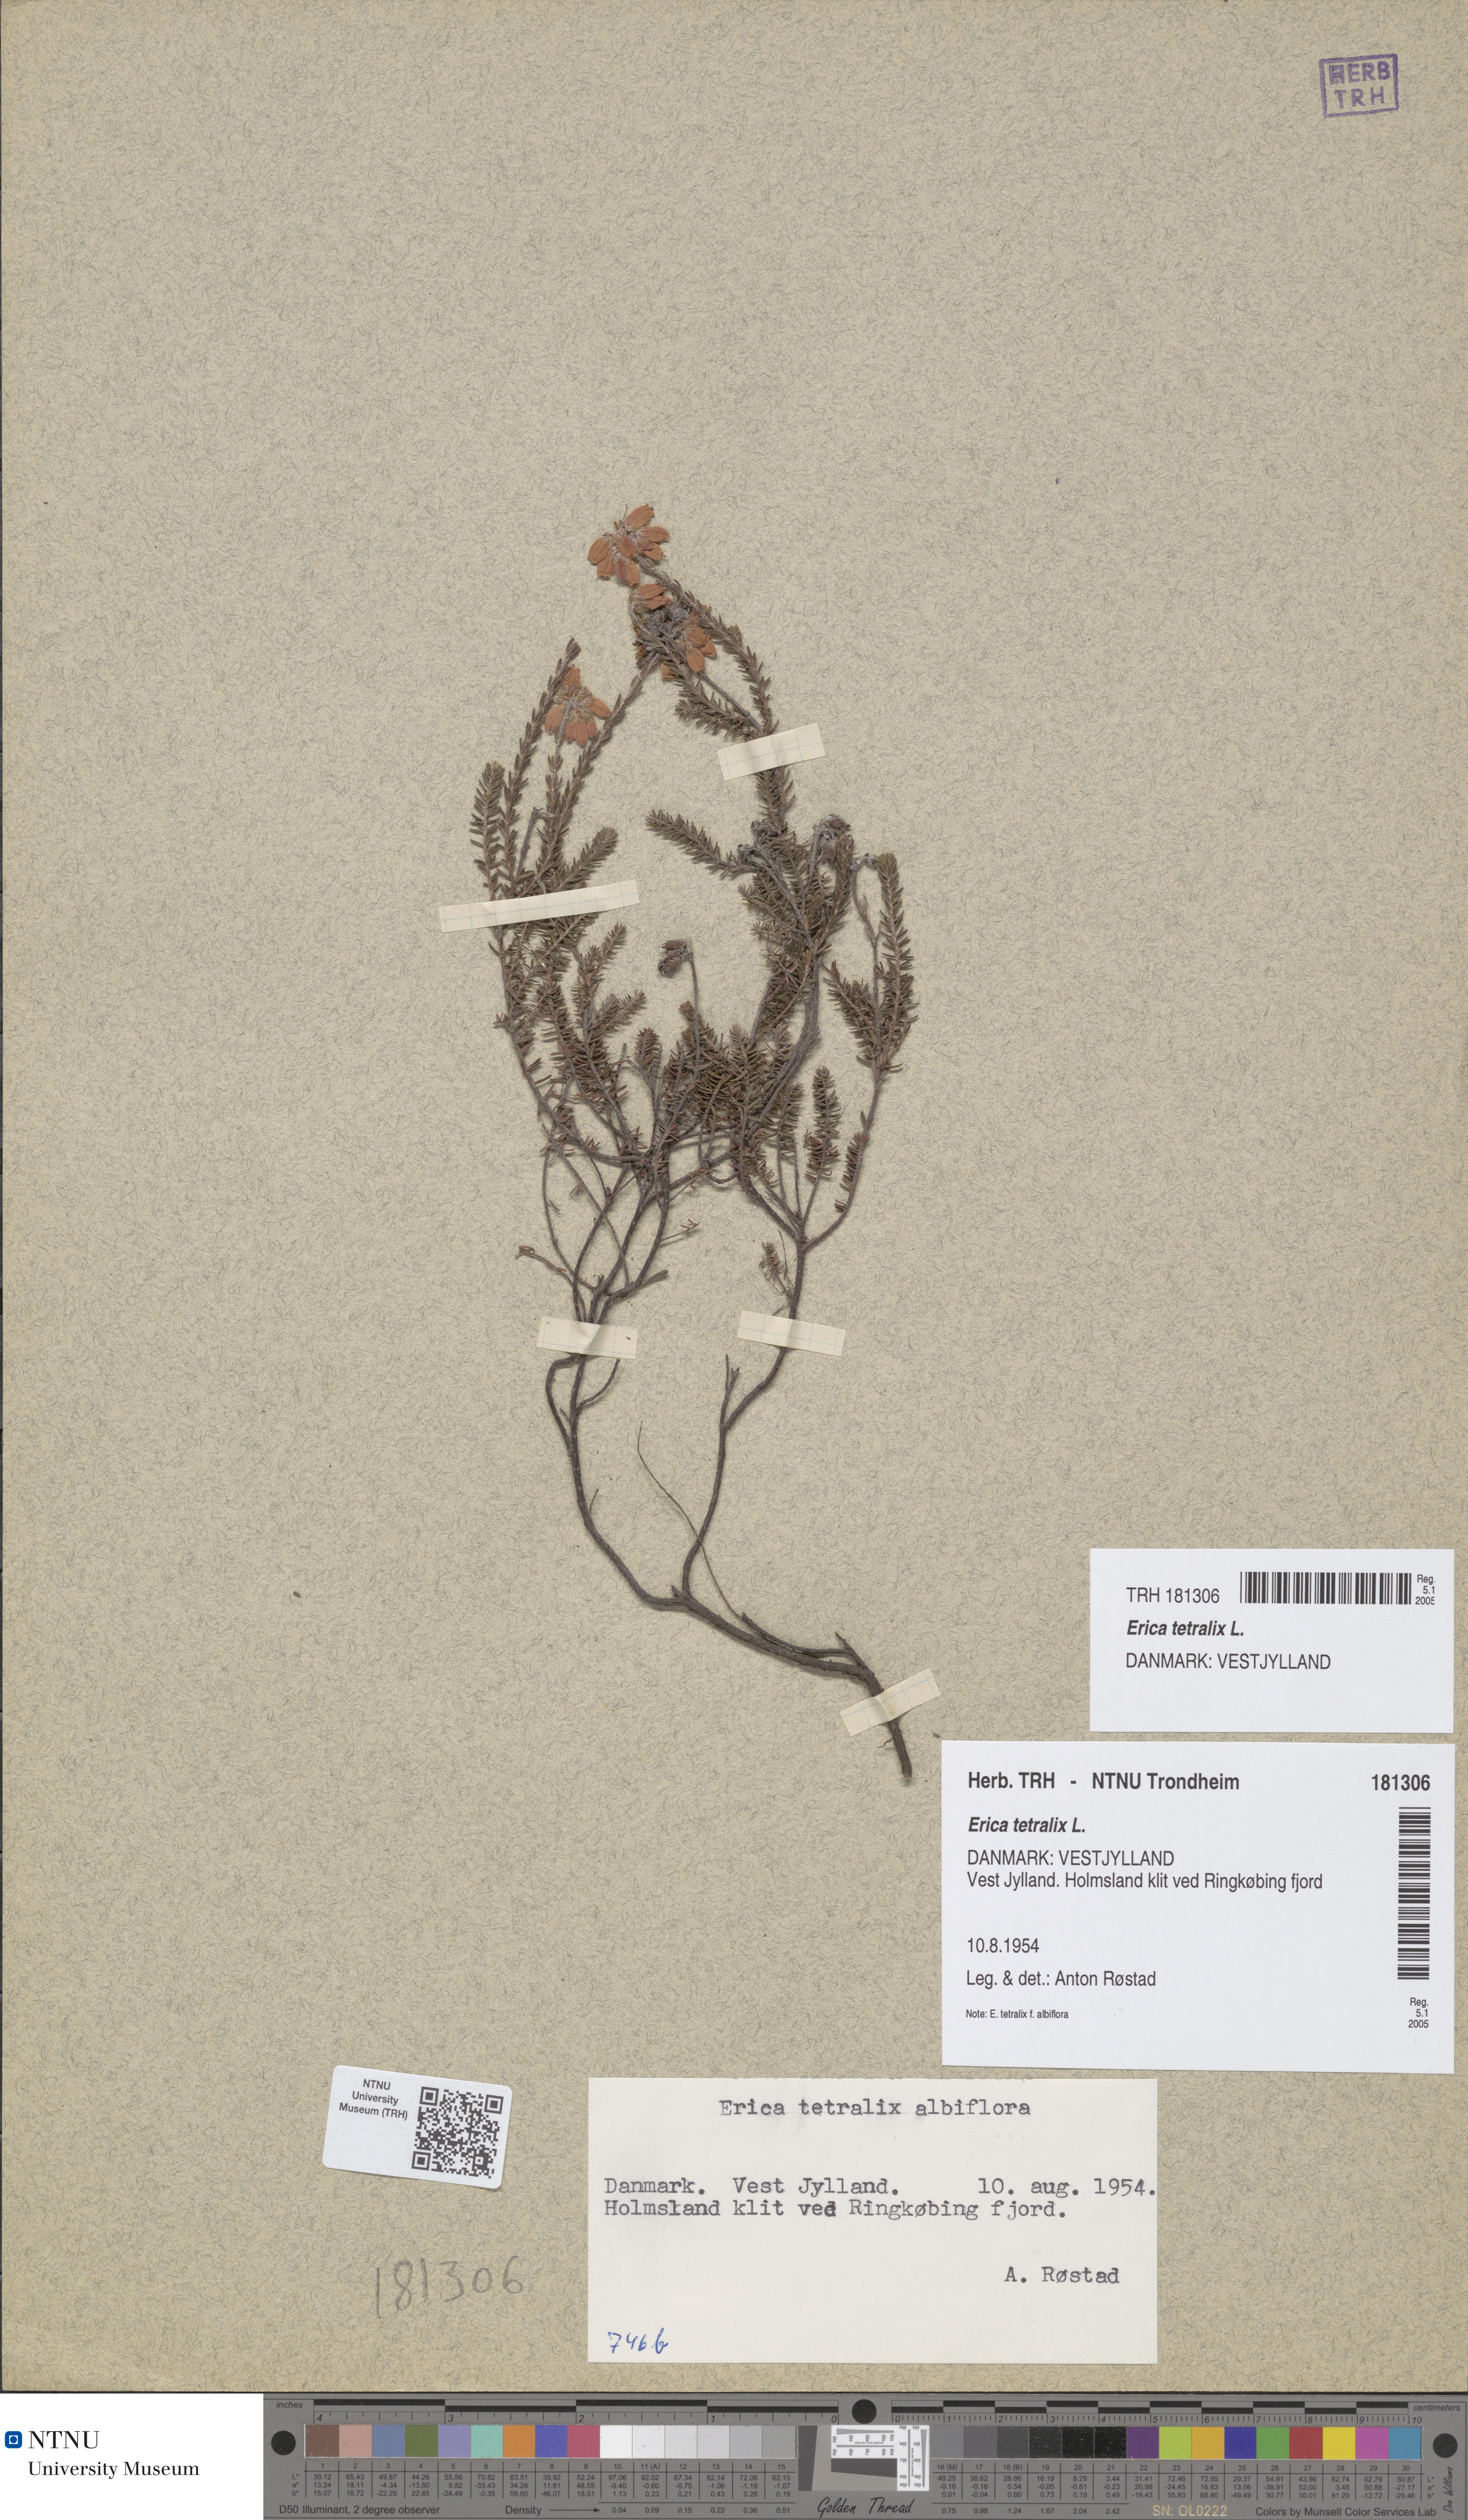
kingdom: Plantae
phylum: Tracheophyta
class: Magnoliopsida
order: Ericales
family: Ericaceae
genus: Erica
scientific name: Erica tetralix
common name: Cross-leaved heath
